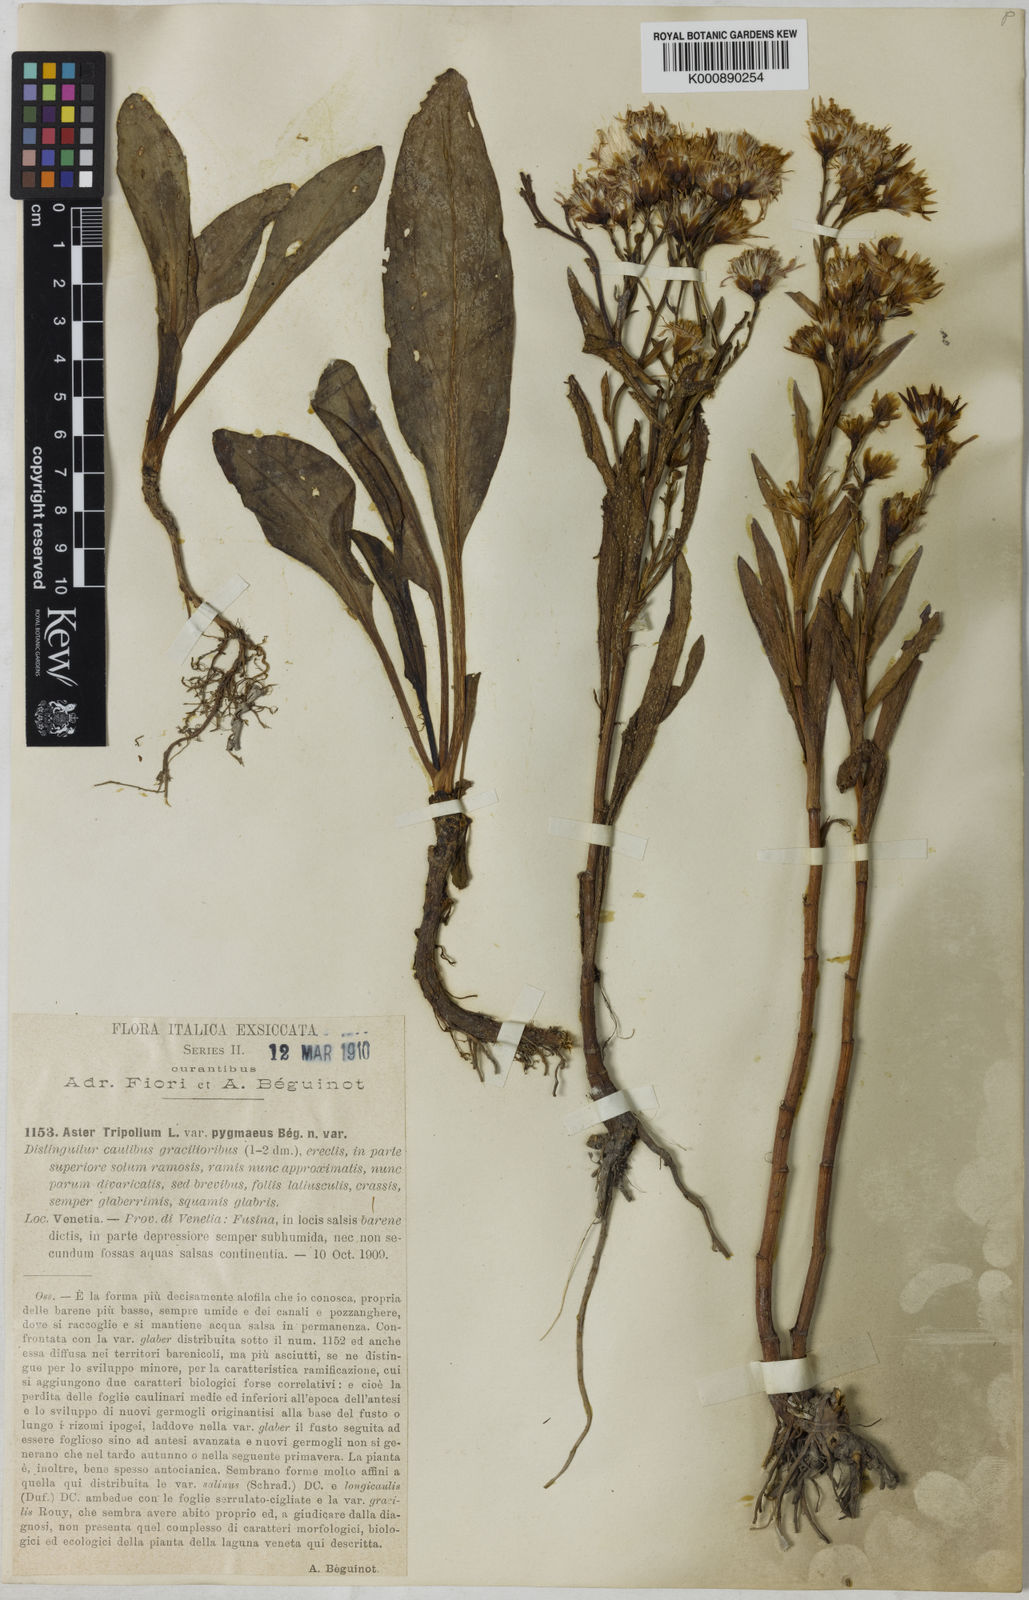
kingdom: Plantae
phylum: Tracheophyta
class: Magnoliopsida
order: Asterales
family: Asteraceae
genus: Aster
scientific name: Aster
